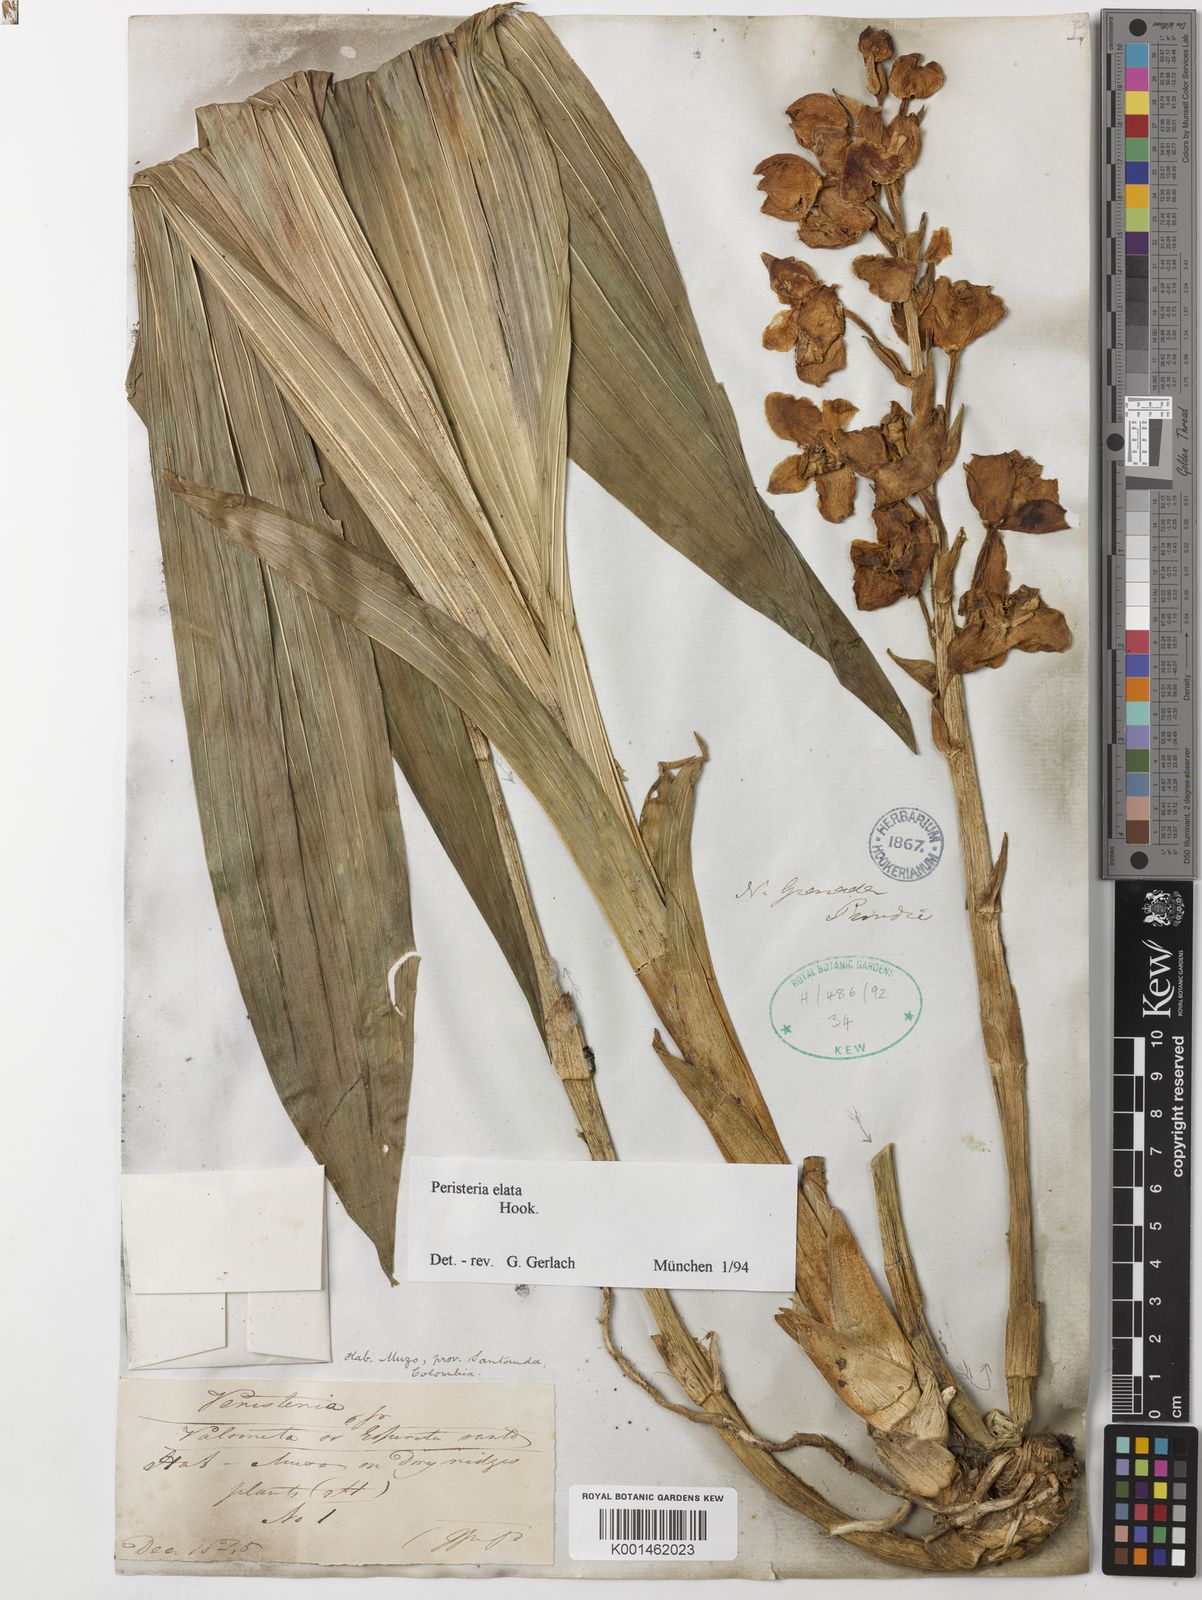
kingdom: Plantae
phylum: Tracheophyta
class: Liliopsida
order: Asparagales
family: Orchidaceae
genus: Peristeria
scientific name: Peristeria elata
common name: Dove orchid
